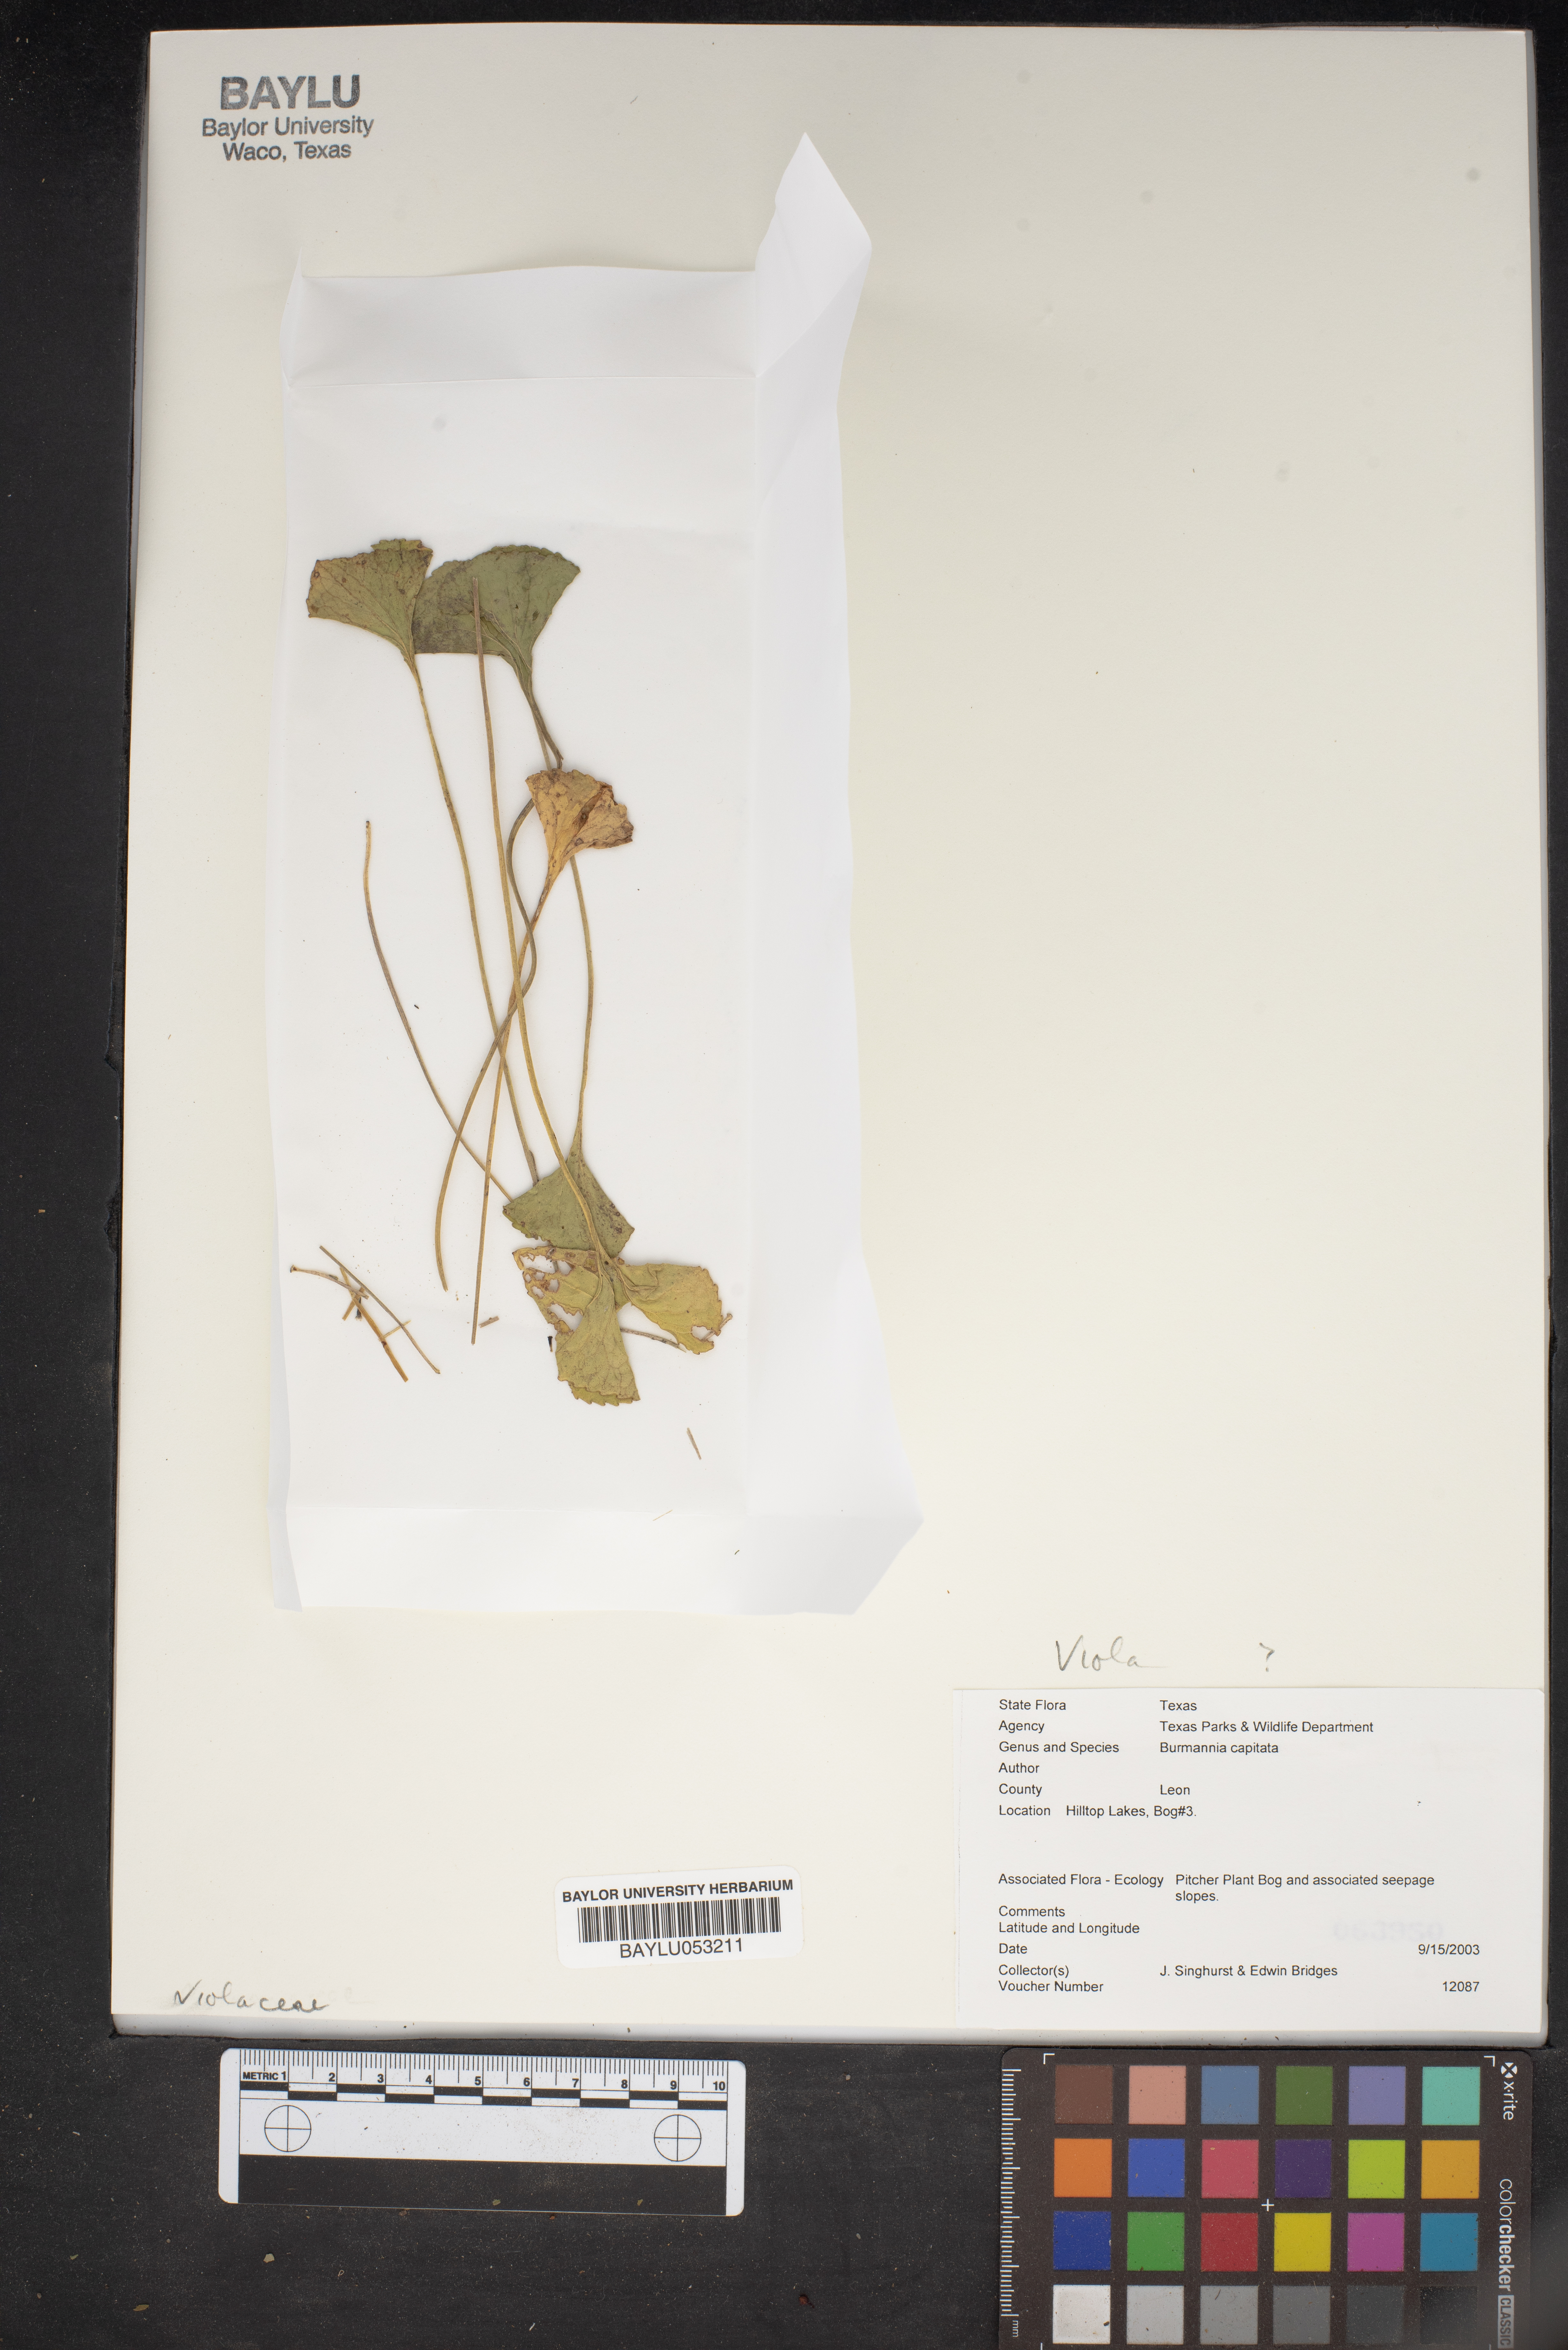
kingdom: Plantae
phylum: Tracheophyta
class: Liliopsida
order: Dioscoreales
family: Burmanniaceae
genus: Burmannia
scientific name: Burmannia capitata
